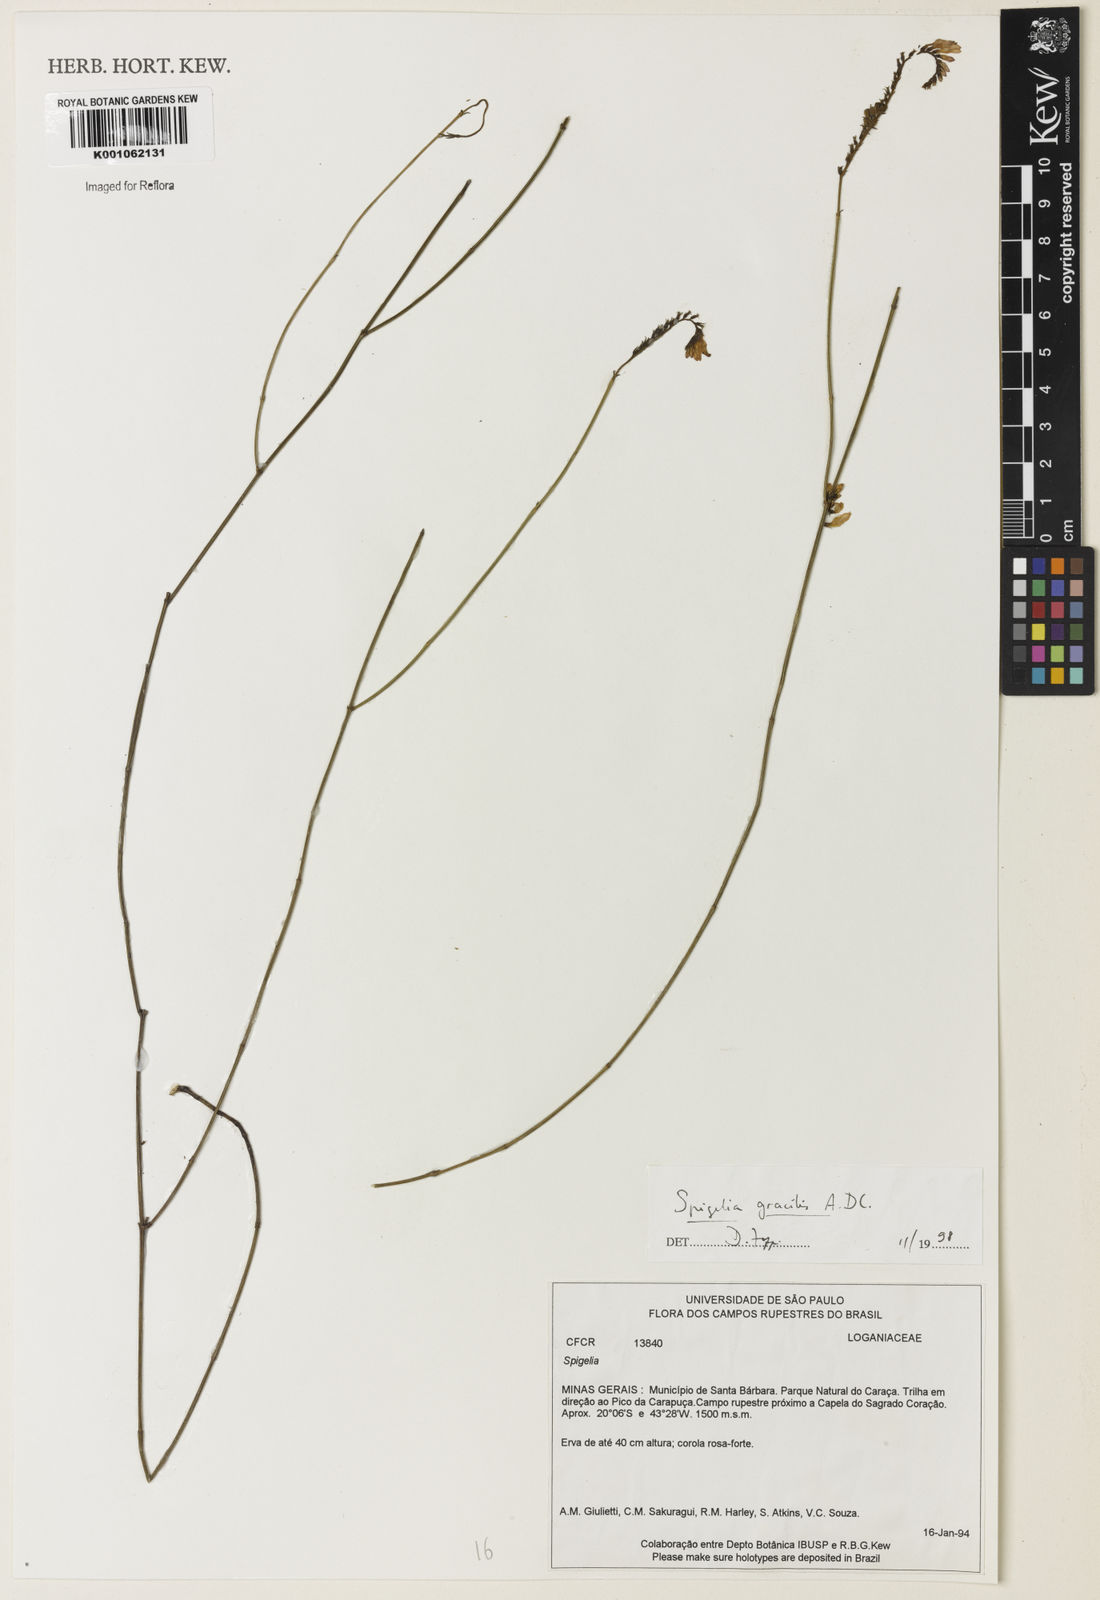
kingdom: Plantae
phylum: Tracheophyta
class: Magnoliopsida
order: Gentianales
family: Loganiaceae
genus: Spigelia
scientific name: Spigelia
